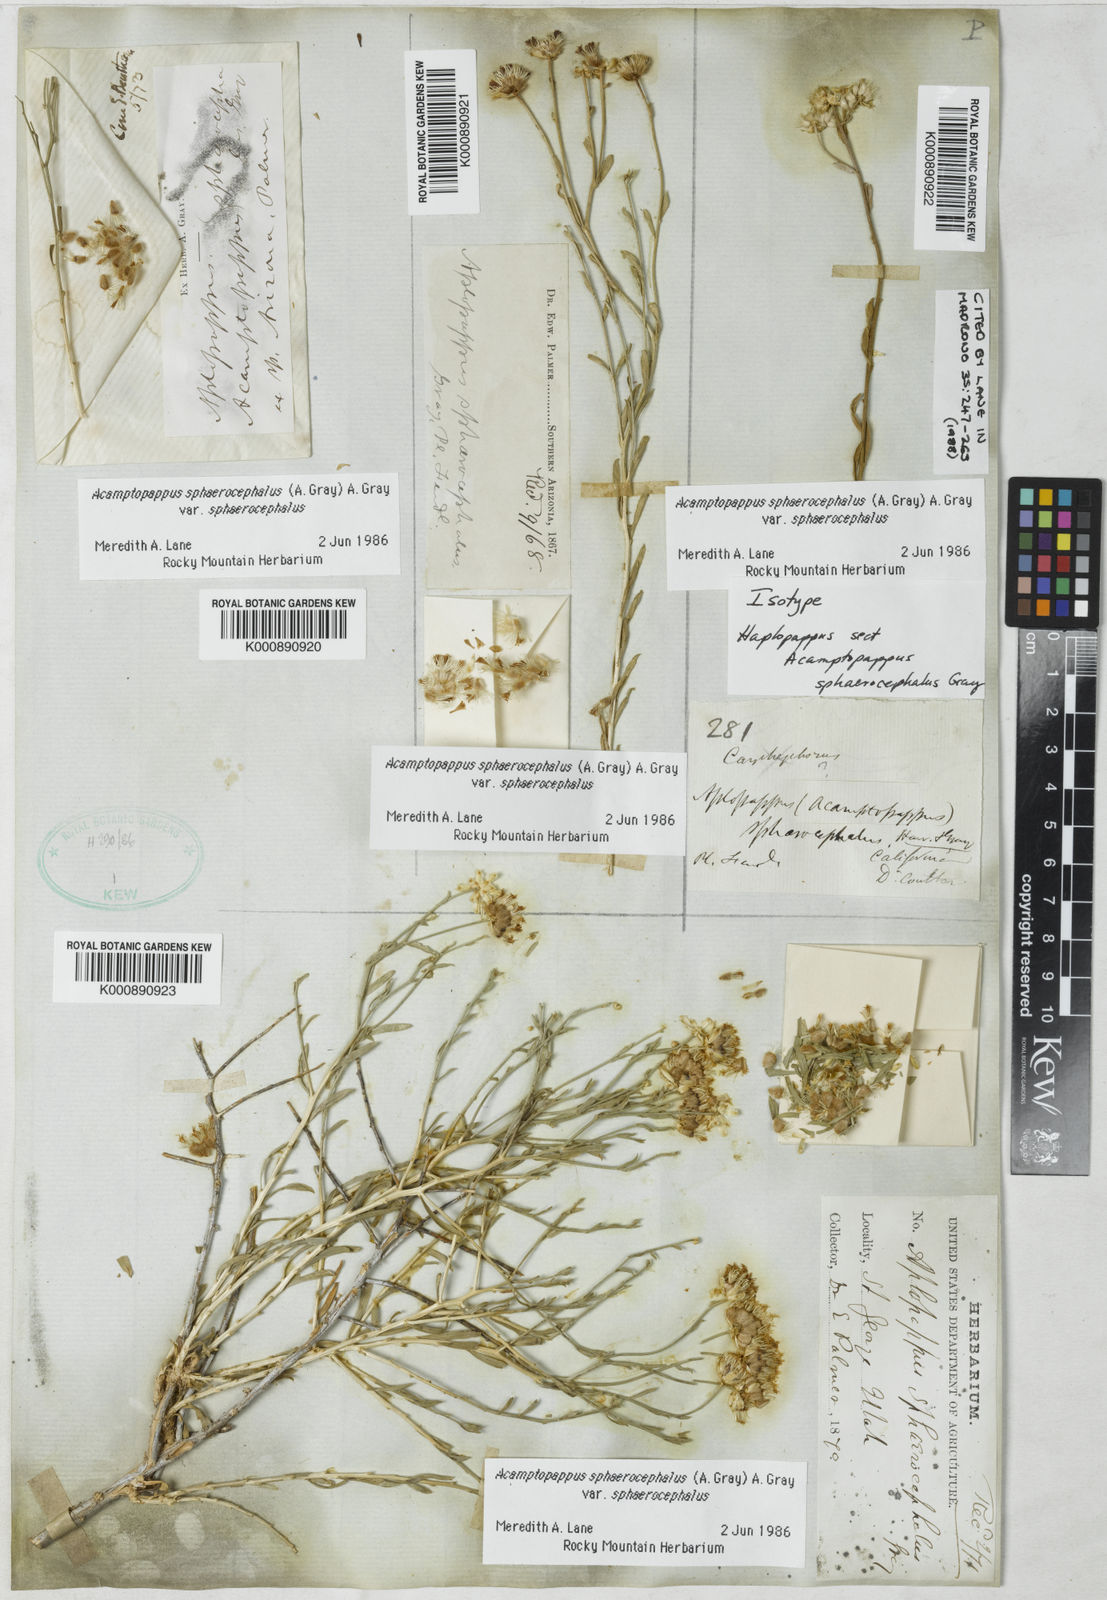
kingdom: Plantae
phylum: Tracheophyta
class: Magnoliopsida
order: Asterales
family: Asteraceae
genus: Acamptopappus
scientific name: Acamptopappus sphaerocephalus
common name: Goldenhead
